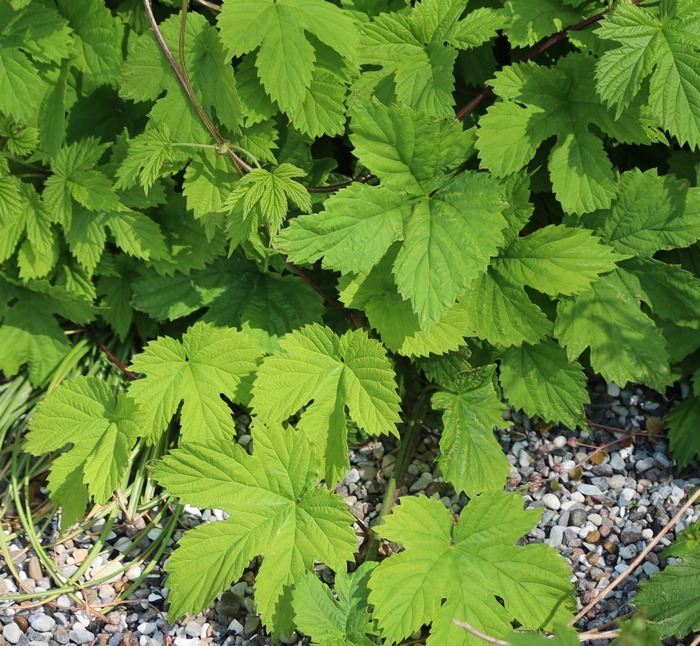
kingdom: Plantae
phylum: Tracheophyta
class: Magnoliopsida
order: Rosales
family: Cannabaceae
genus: Humulus
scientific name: Humulus lupulus
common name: Humle
